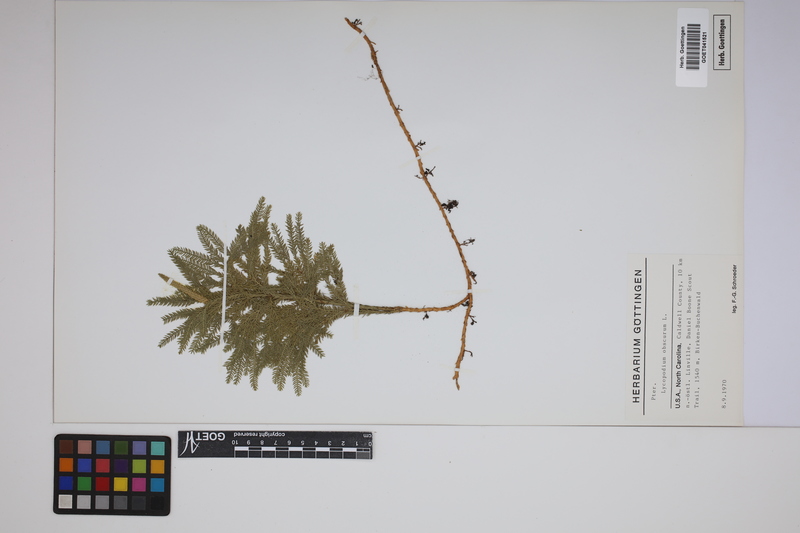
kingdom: Plantae
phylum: Tracheophyta
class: Lycopodiopsida
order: Lycopodiales
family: Lycopodiaceae
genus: Dendrolycopodium
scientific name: Dendrolycopodium obscurum
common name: Common ground-pine
